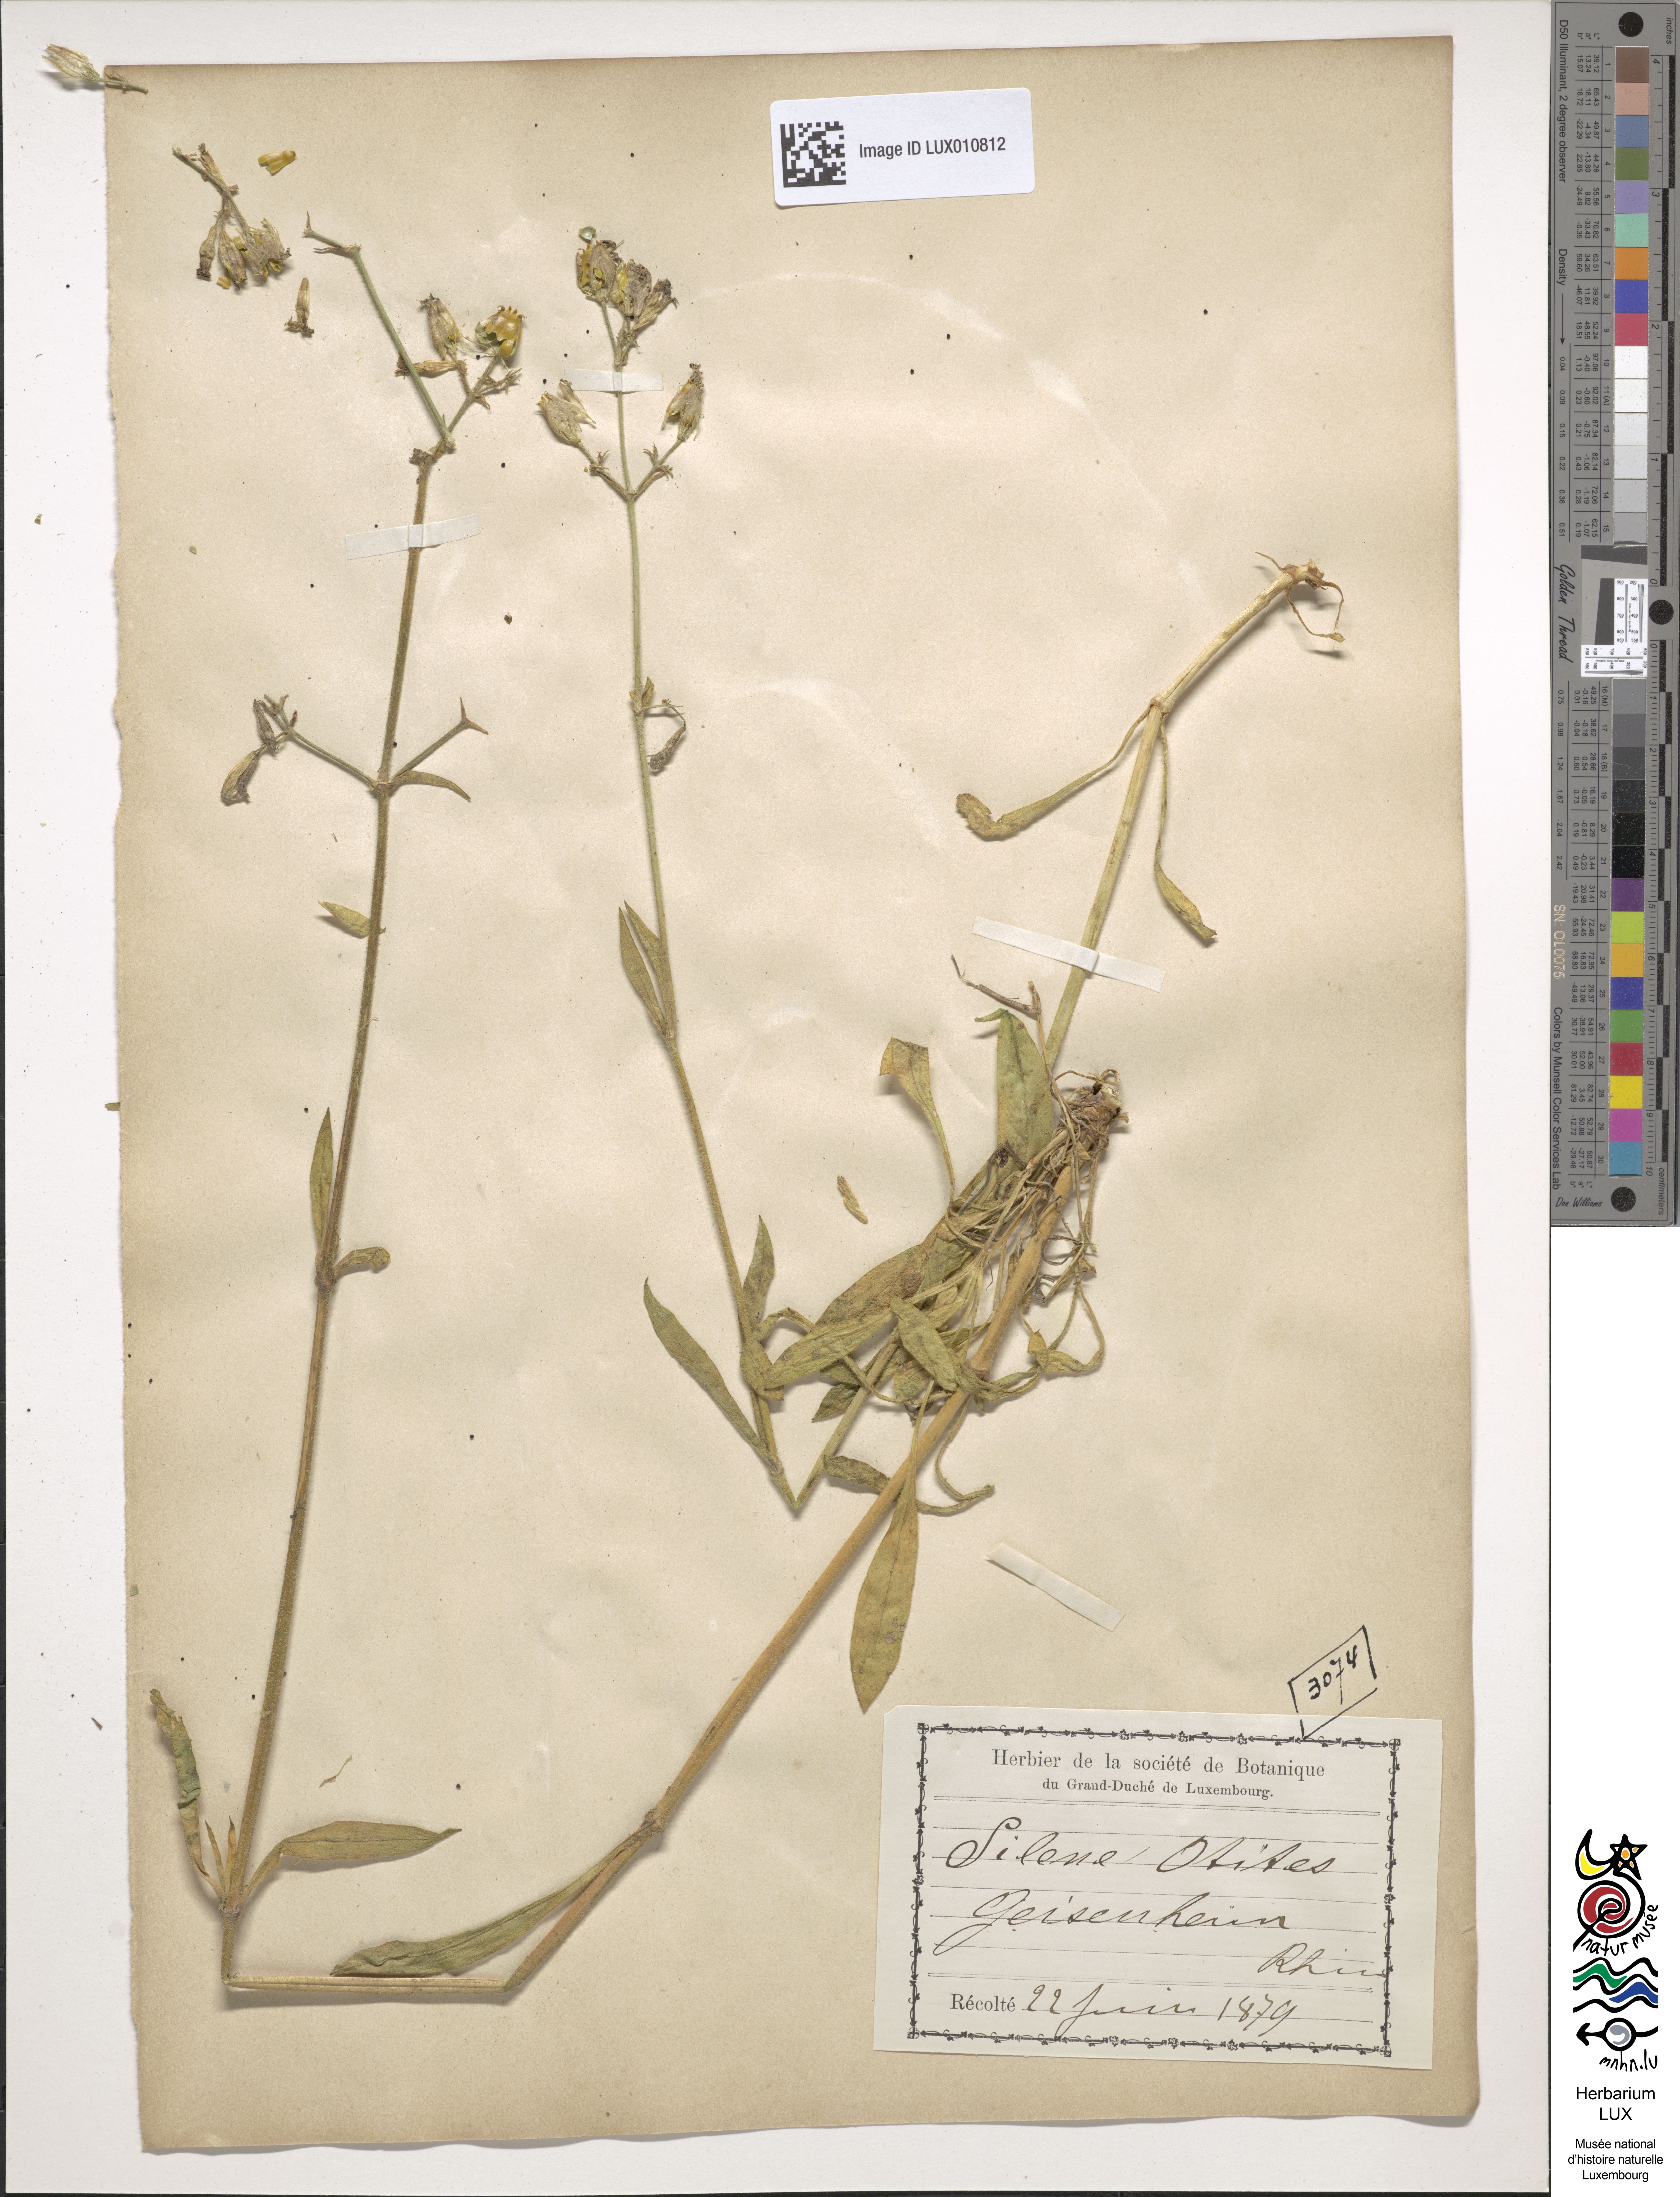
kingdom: Plantae
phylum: Tracheophyta
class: Magnoliopsida
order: Caryophyllales
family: Caryophyllaceae
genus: Silene
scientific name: Silene otites
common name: Spanish catchfly
